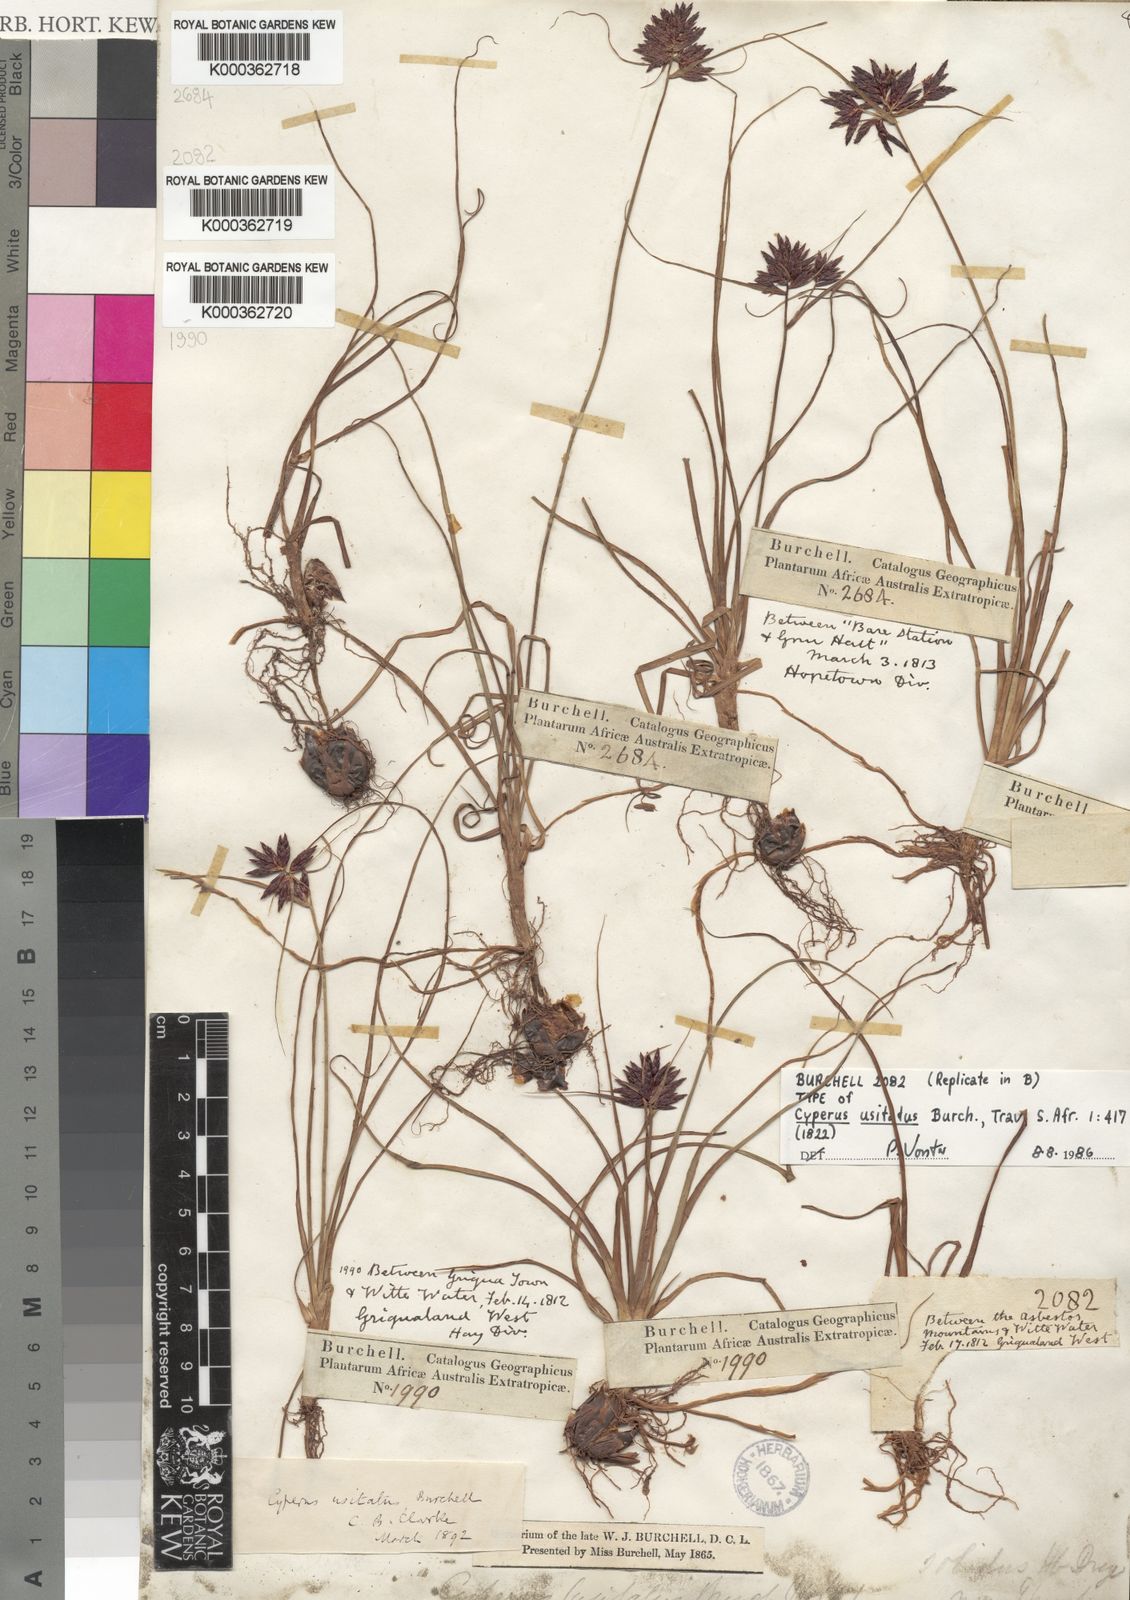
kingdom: Plantae
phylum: Tracheophyta
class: Liliopsida
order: Poales
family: Cyperaceae
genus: Cyperus
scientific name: Cyperus
